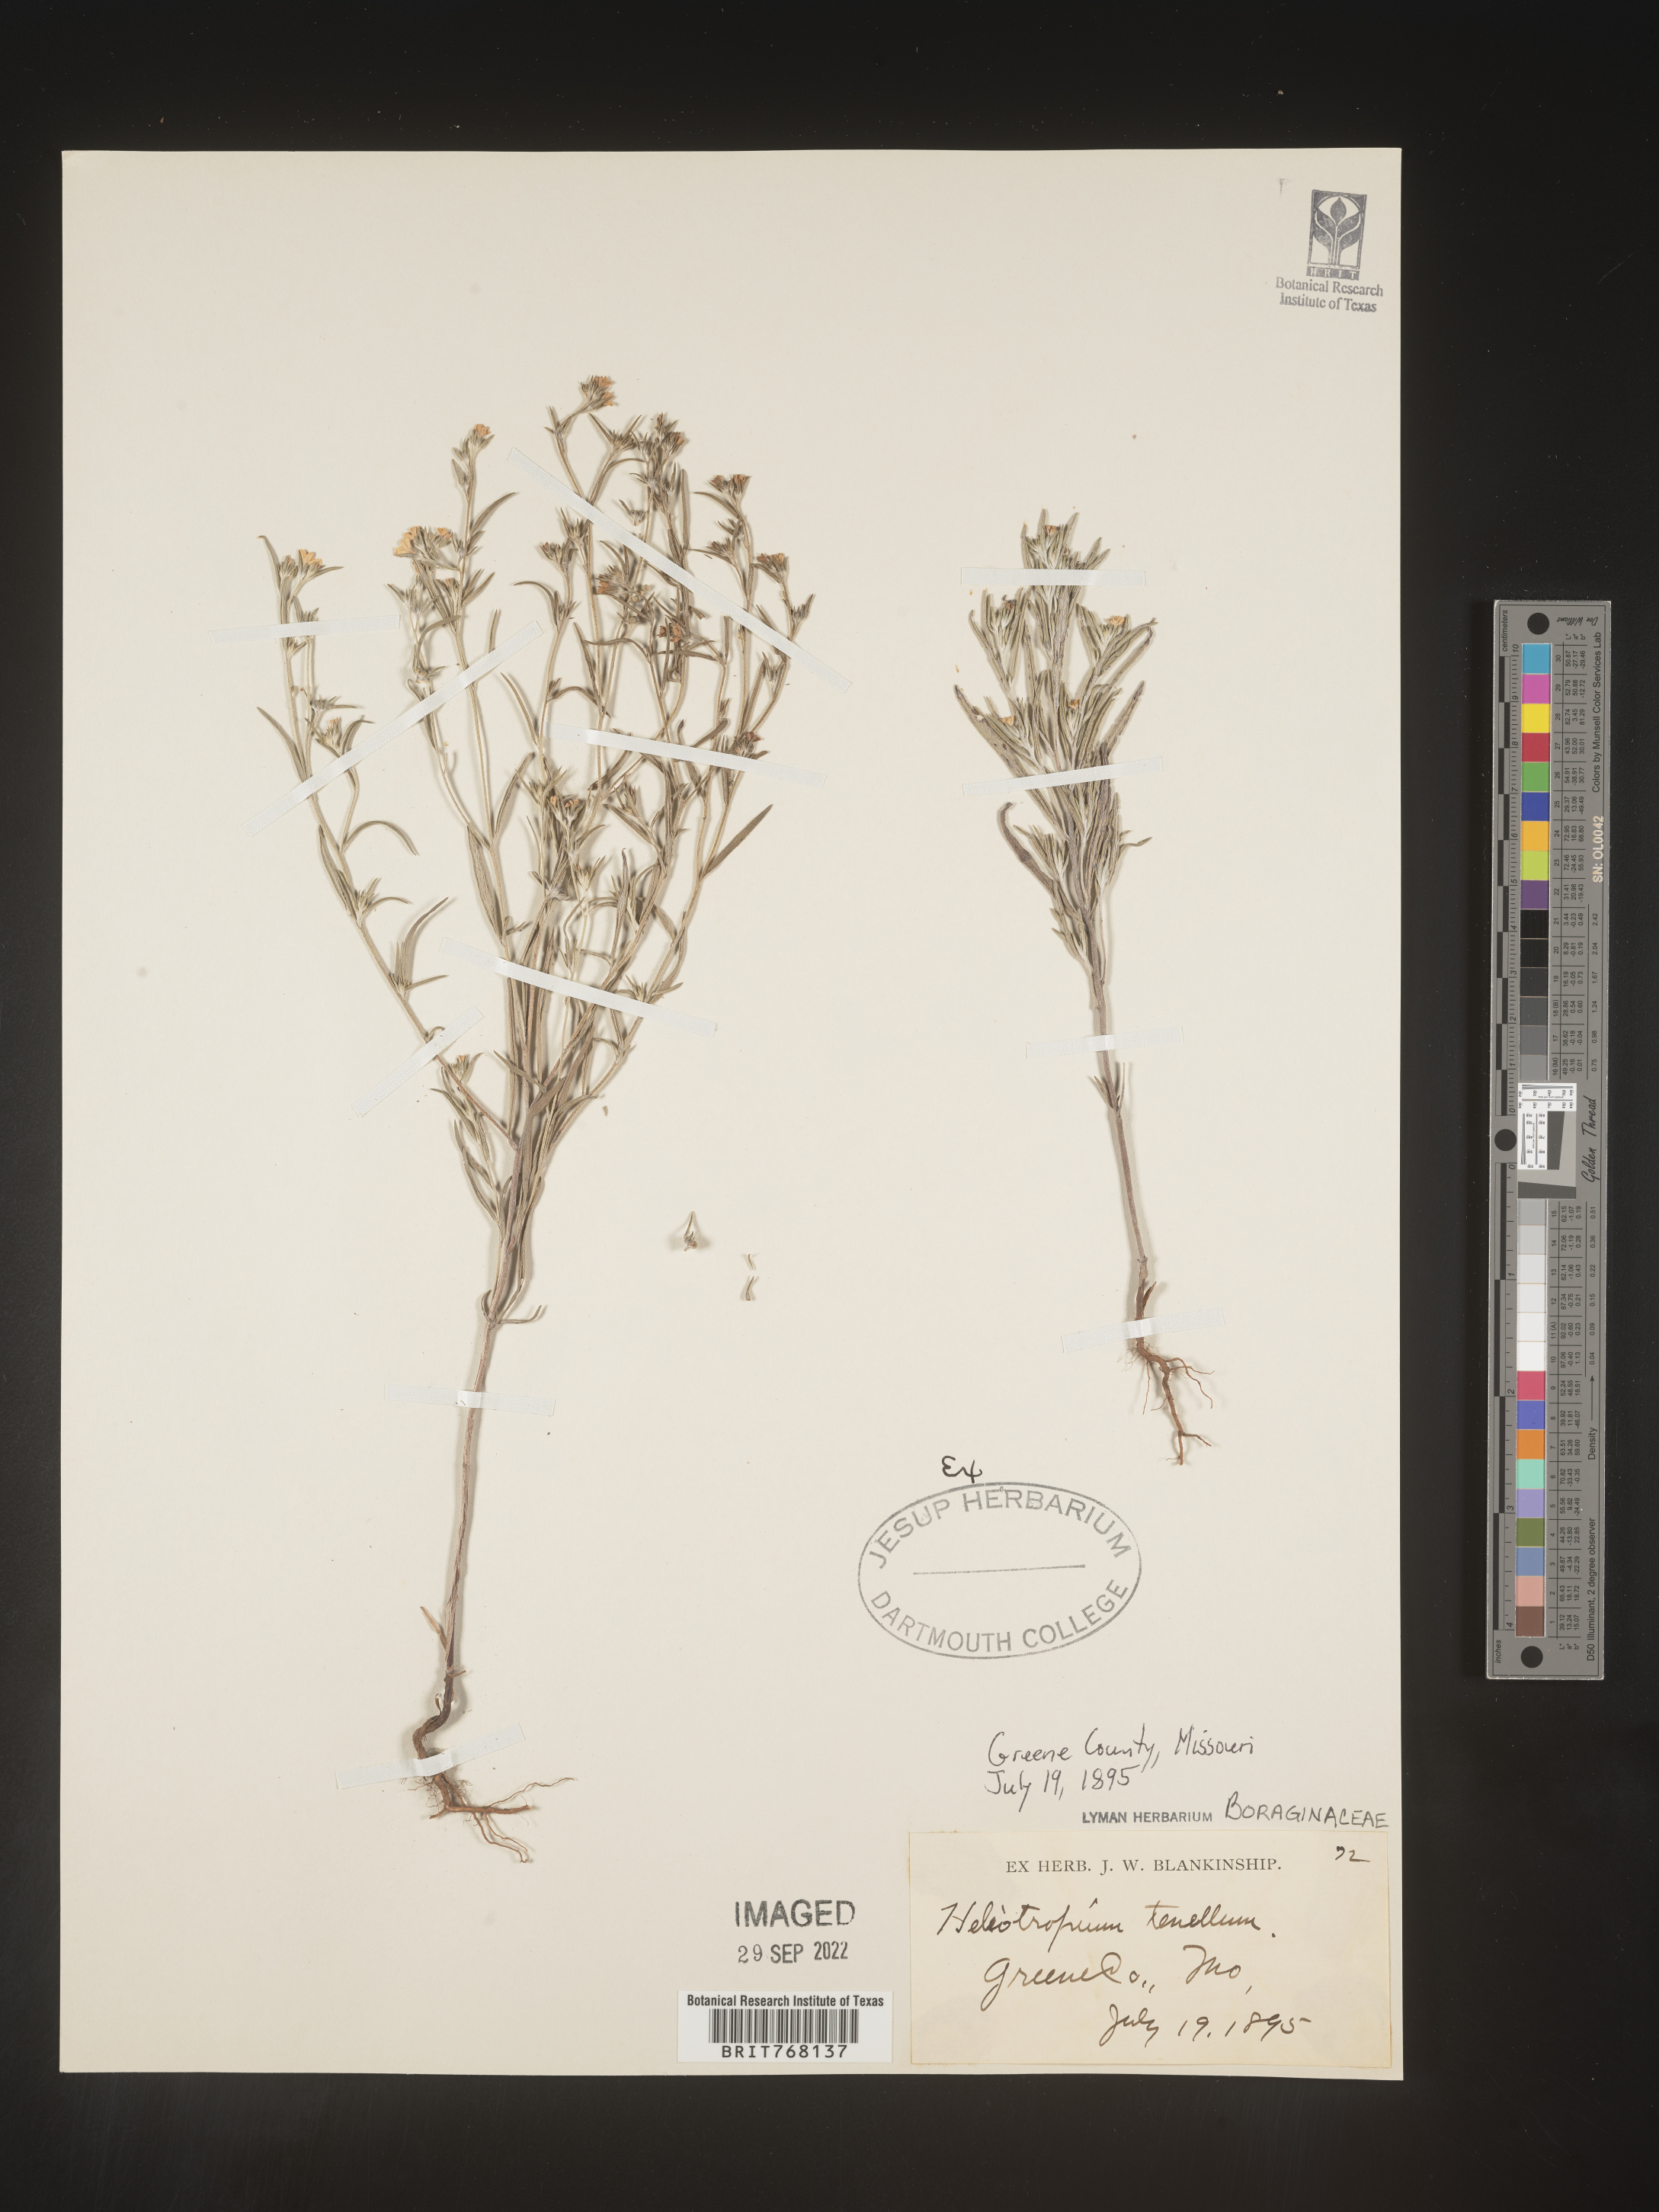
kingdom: Plantae
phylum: Tracheophyta
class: Magnoliopsida
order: Boraginales
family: Heliotropiaceae
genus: Euploca
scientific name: Euploca tenella
